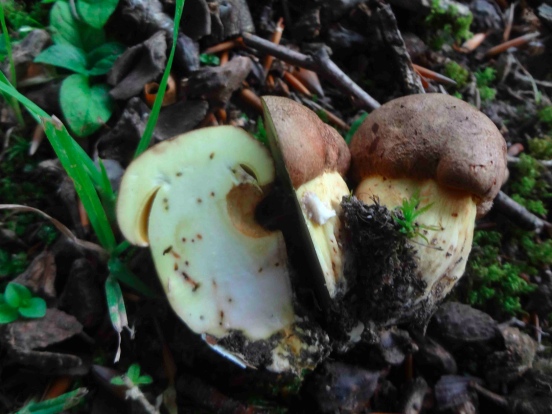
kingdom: Fungi
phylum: Basidiomycota
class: Agaricomycetes
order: Boletales
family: Boletaceae
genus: Butyriboletus
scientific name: Butyriboletus appendiculatus
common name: tenstokket rørhat
